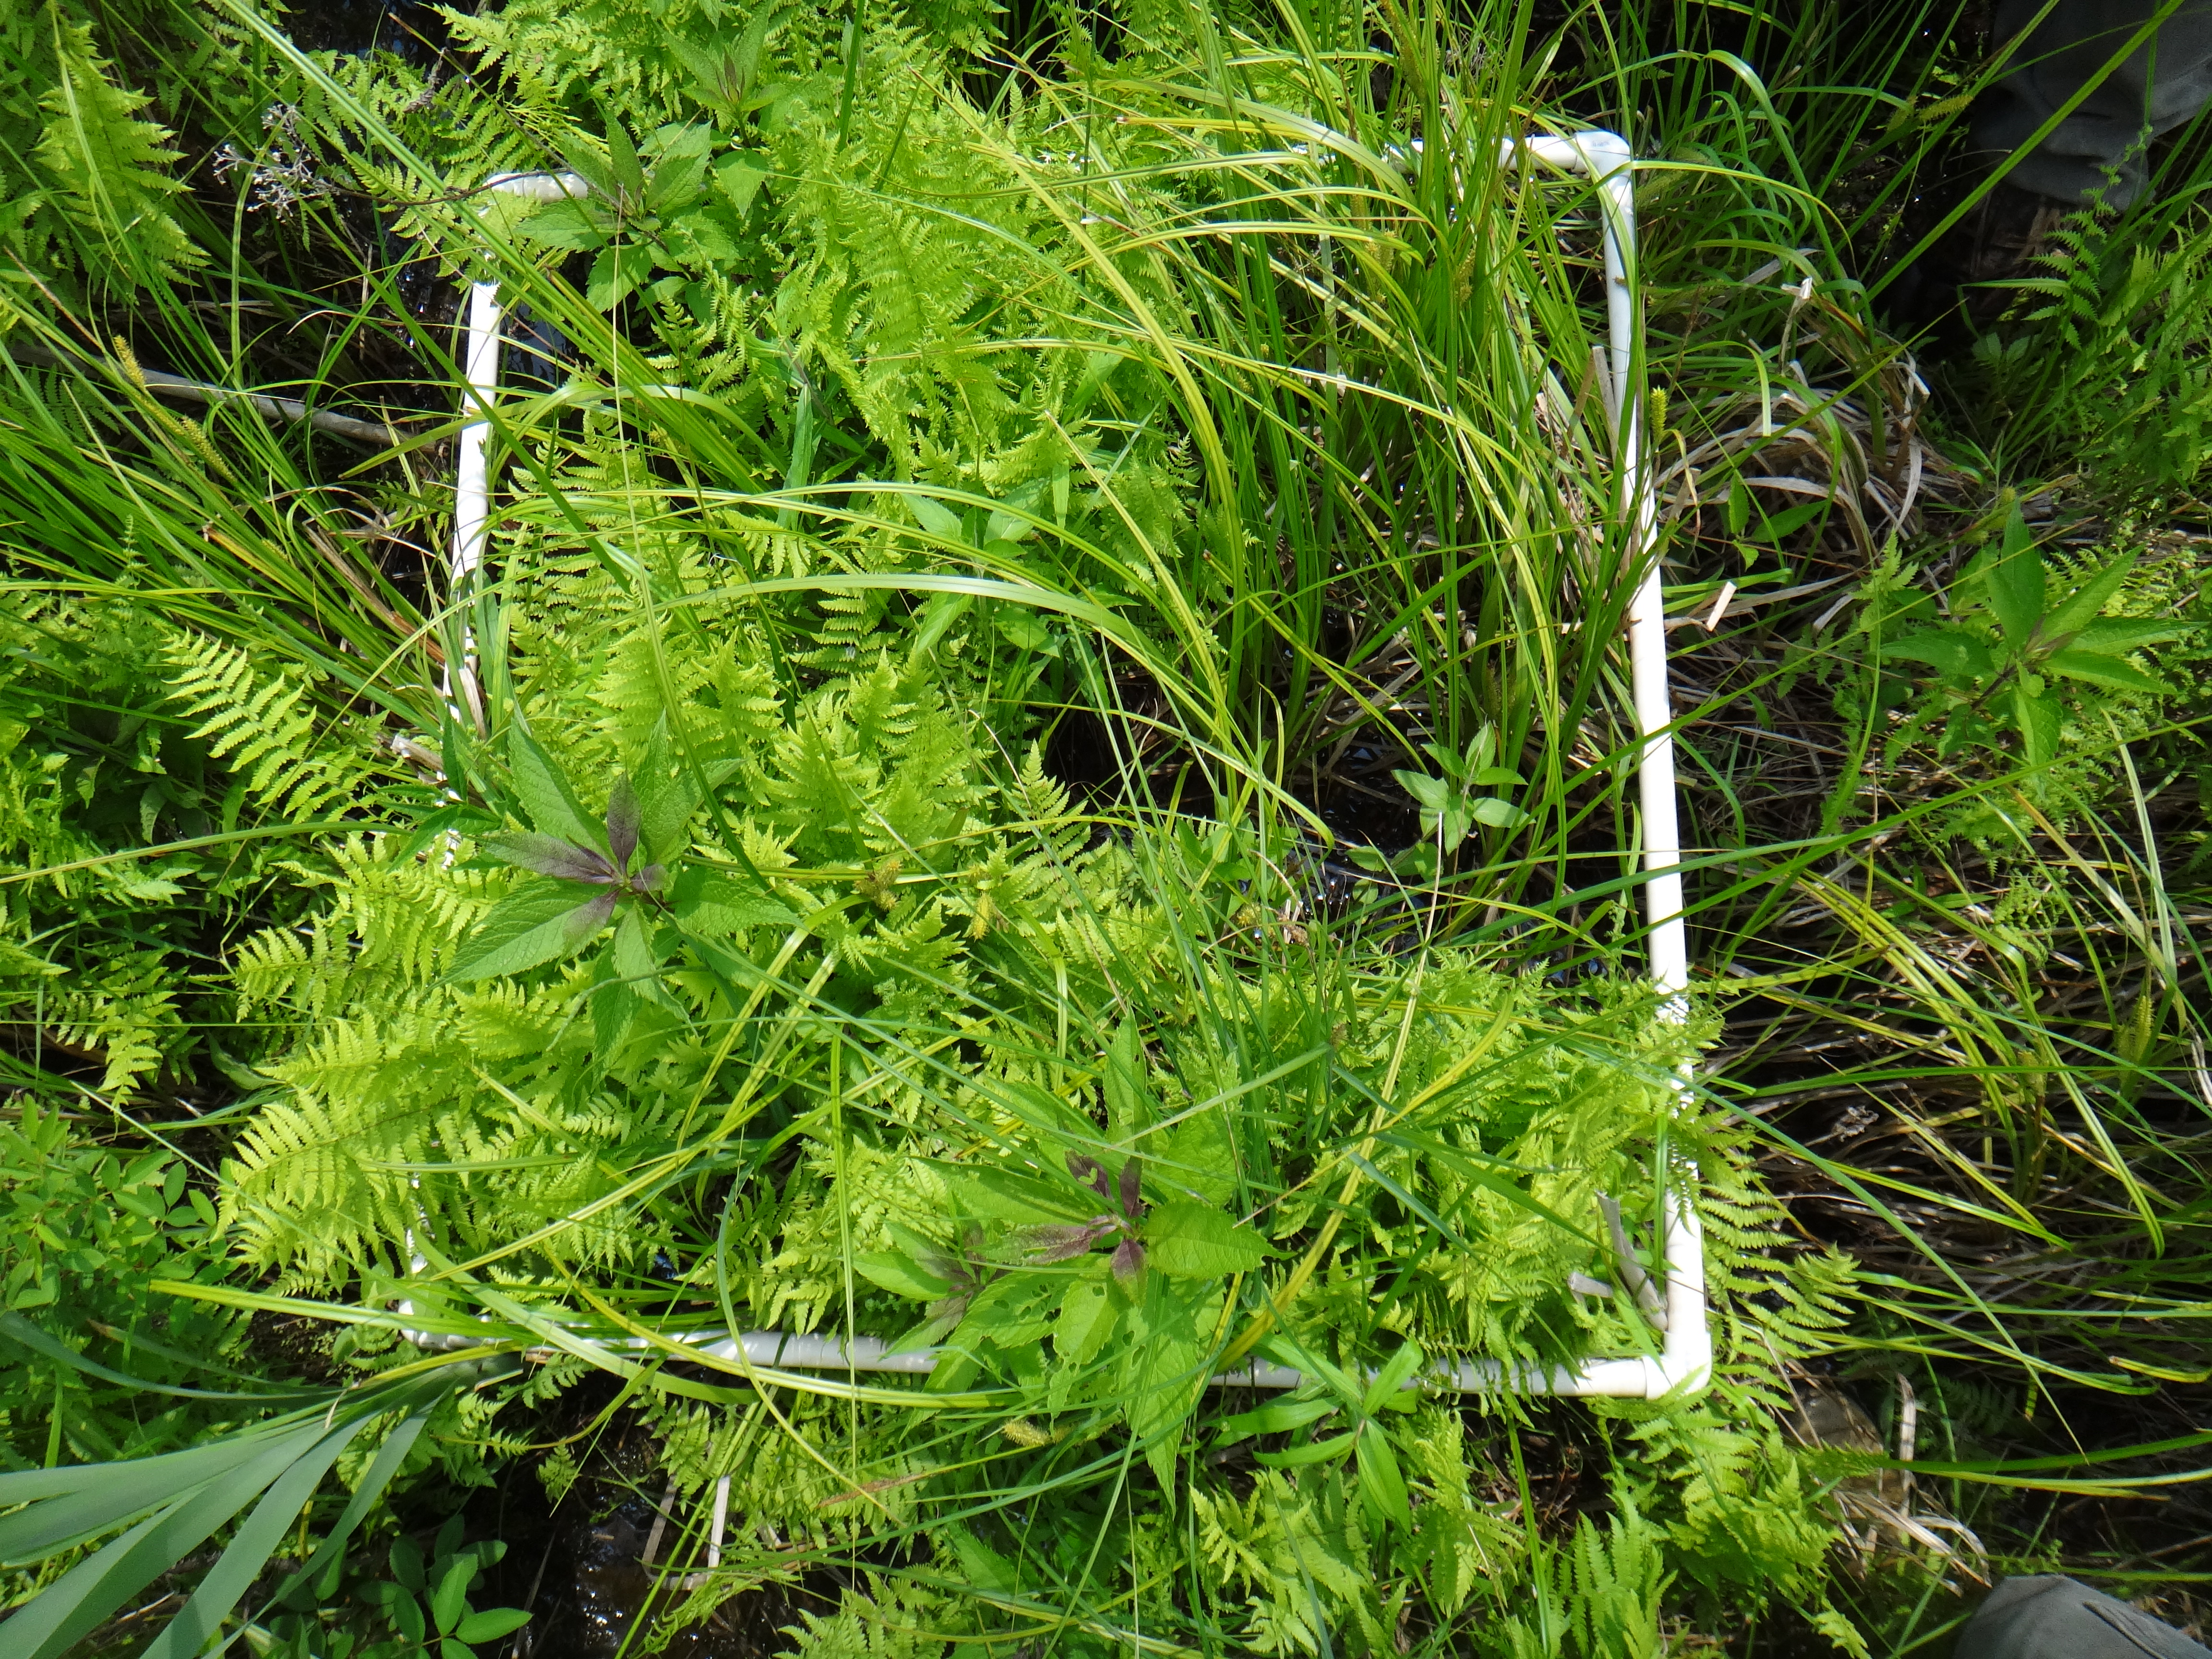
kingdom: Plantae
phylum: Tracheophyta
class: Magnoliopsida
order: Asterales
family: Campanulaceae
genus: Palustricodon
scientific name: Palustricodon aparinoides
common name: Bedstraw bellflower
